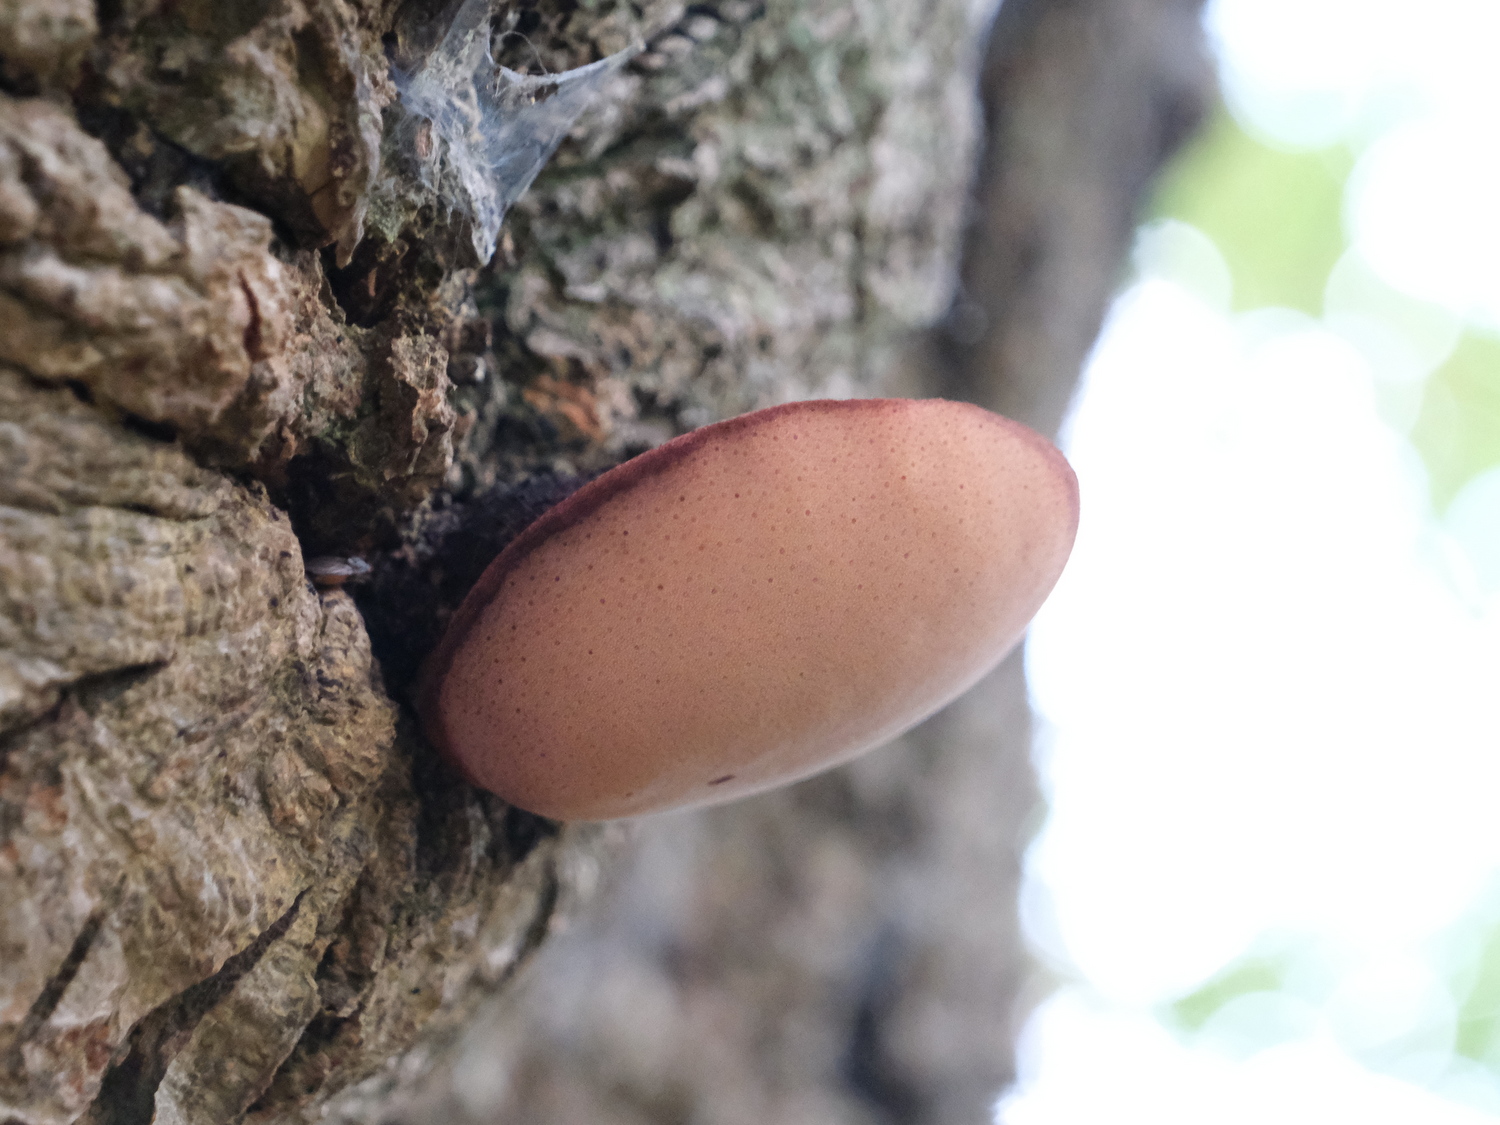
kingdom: Fungi
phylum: Basidiomycota
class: Agaricomycetes
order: Agaricales
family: Fistulinaceae
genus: Fistulina
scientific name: Fistulina hepatica
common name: oksetunge
